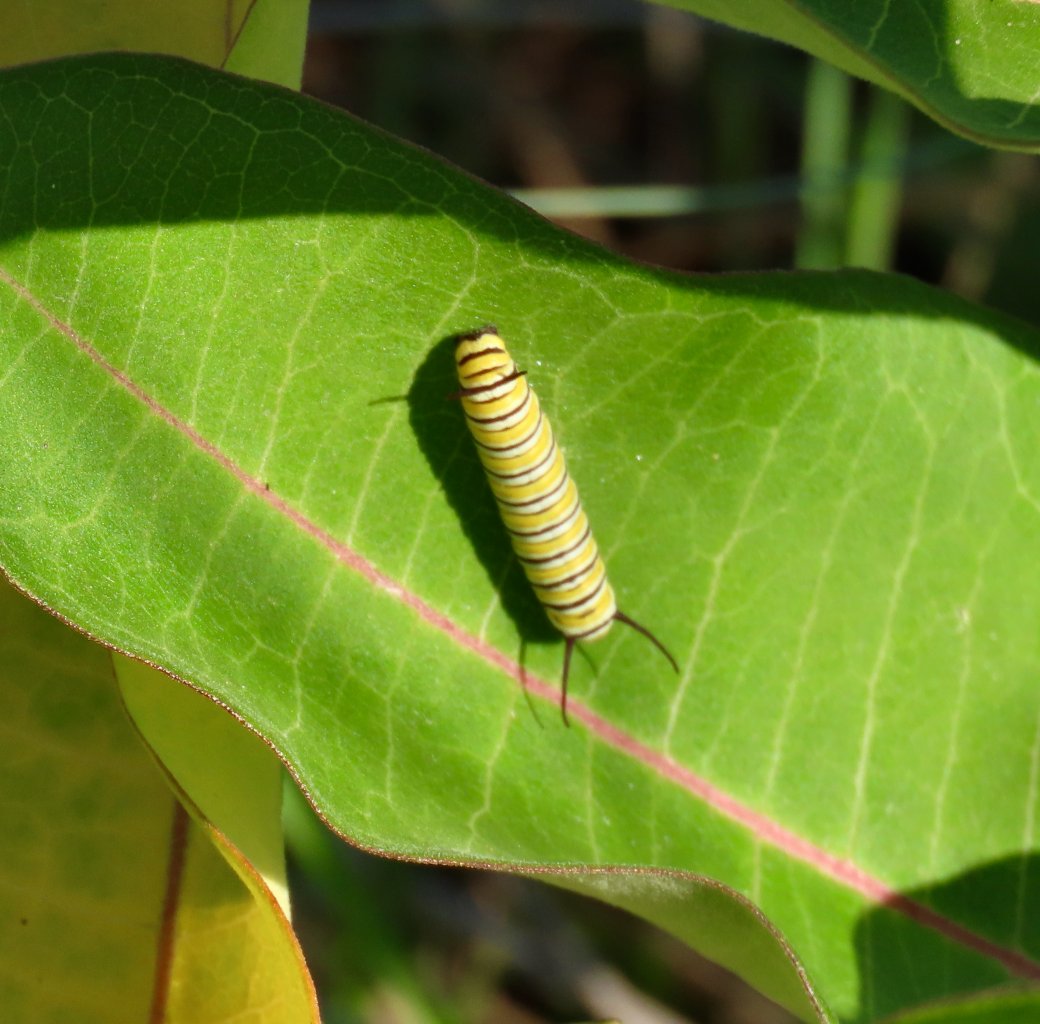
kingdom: Animalia
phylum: Arthropoda
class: Insecta
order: Lepidoptera
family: Nymphalidae
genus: Danaus
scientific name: Danaus plexippus
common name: Monarch
